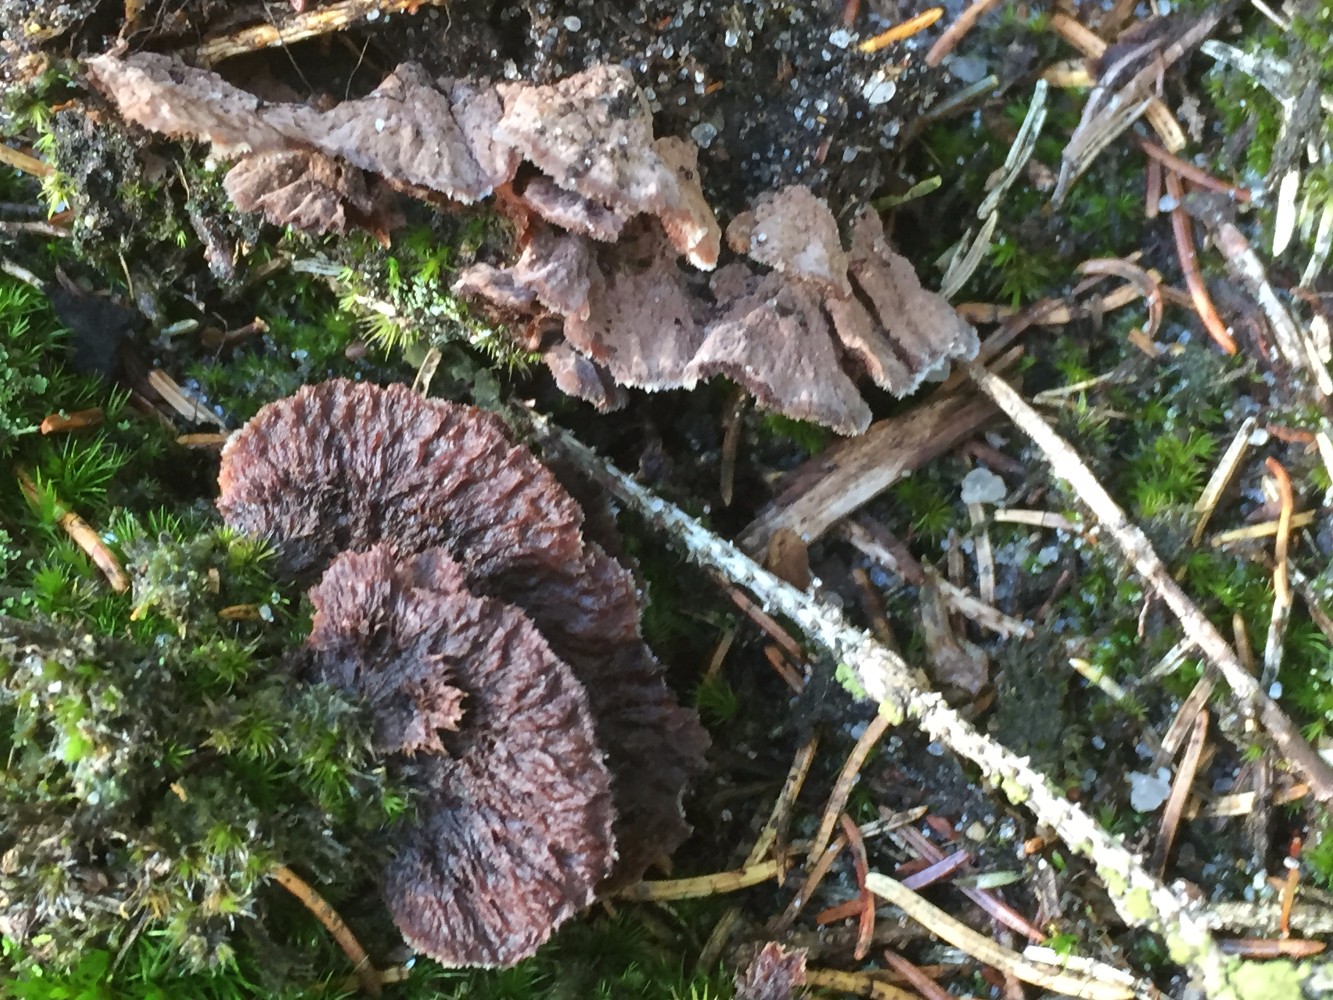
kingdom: Fungi
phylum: Basidiomycota
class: Agaricomycetes
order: Thelephorales
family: Thelephoraceae
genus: Thelephora
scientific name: Thelephora terrestris
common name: fliget frynsesvamp
